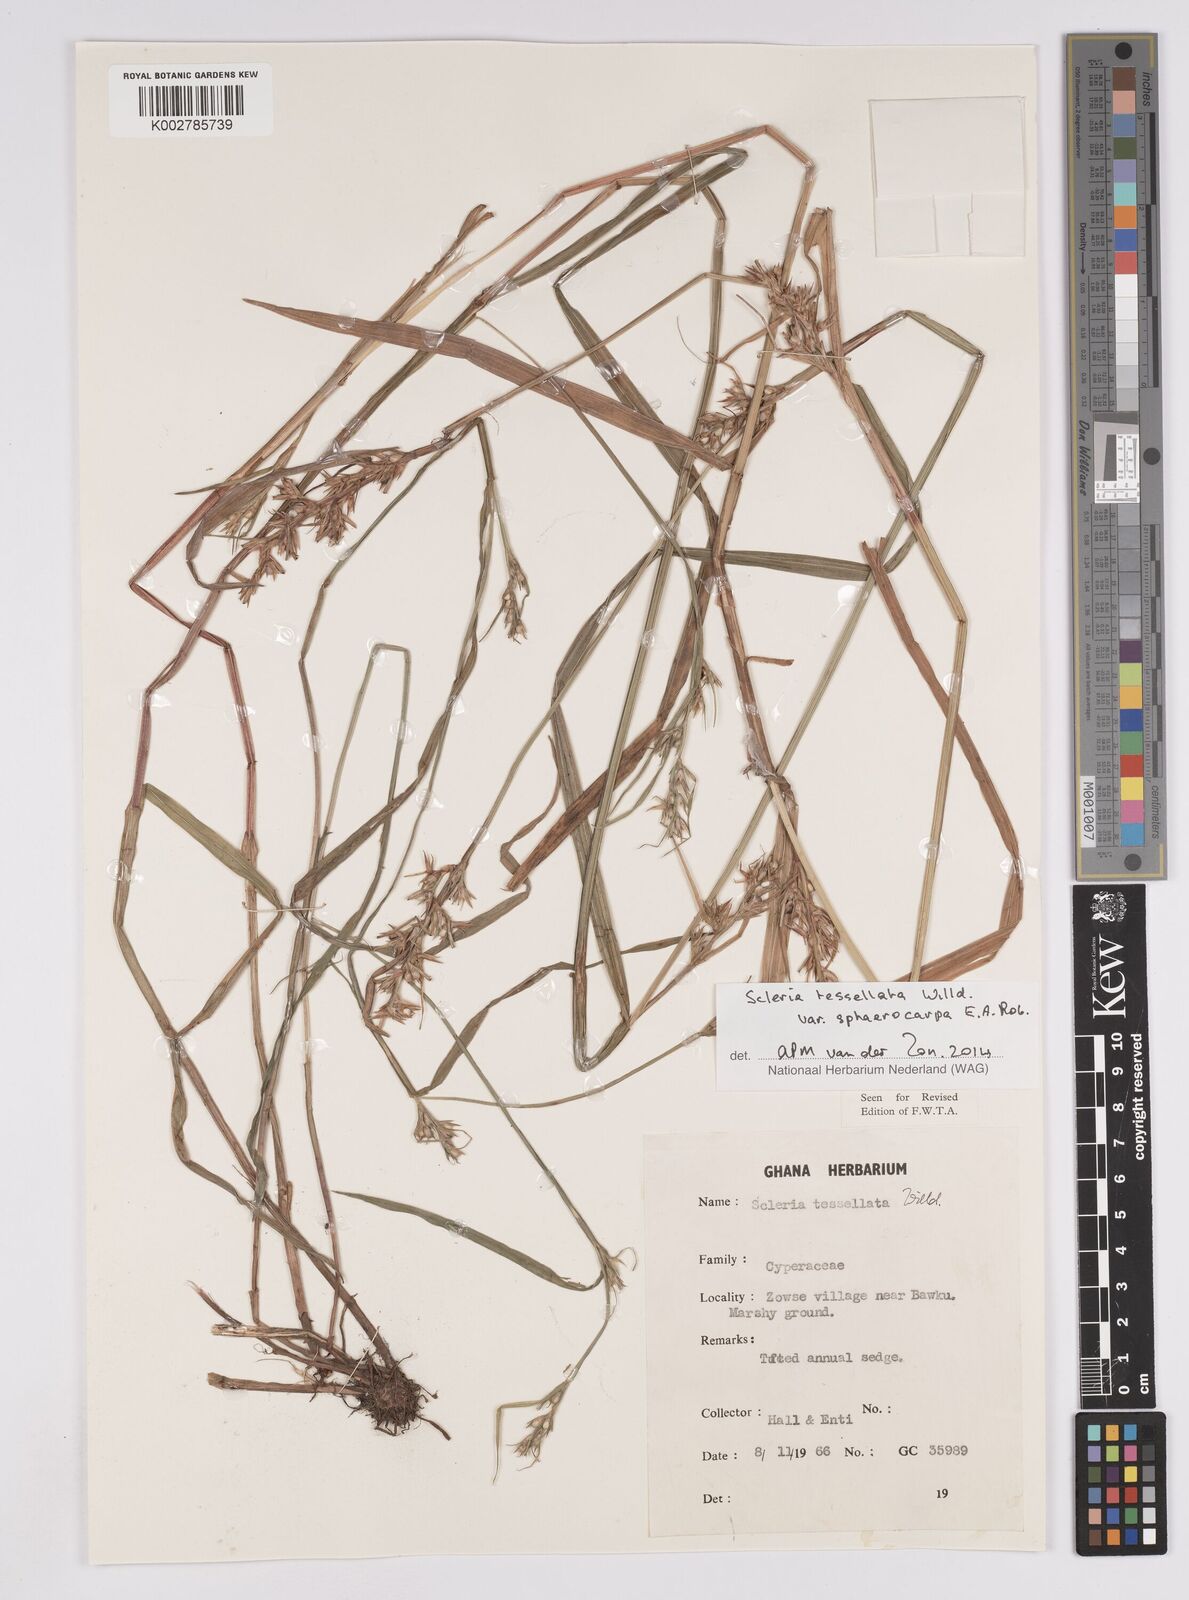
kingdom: Plantae
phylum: Tracheophyta
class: Liliopsida
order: Poales
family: Cyperaceae
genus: Scleria
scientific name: Scleria tessellata
